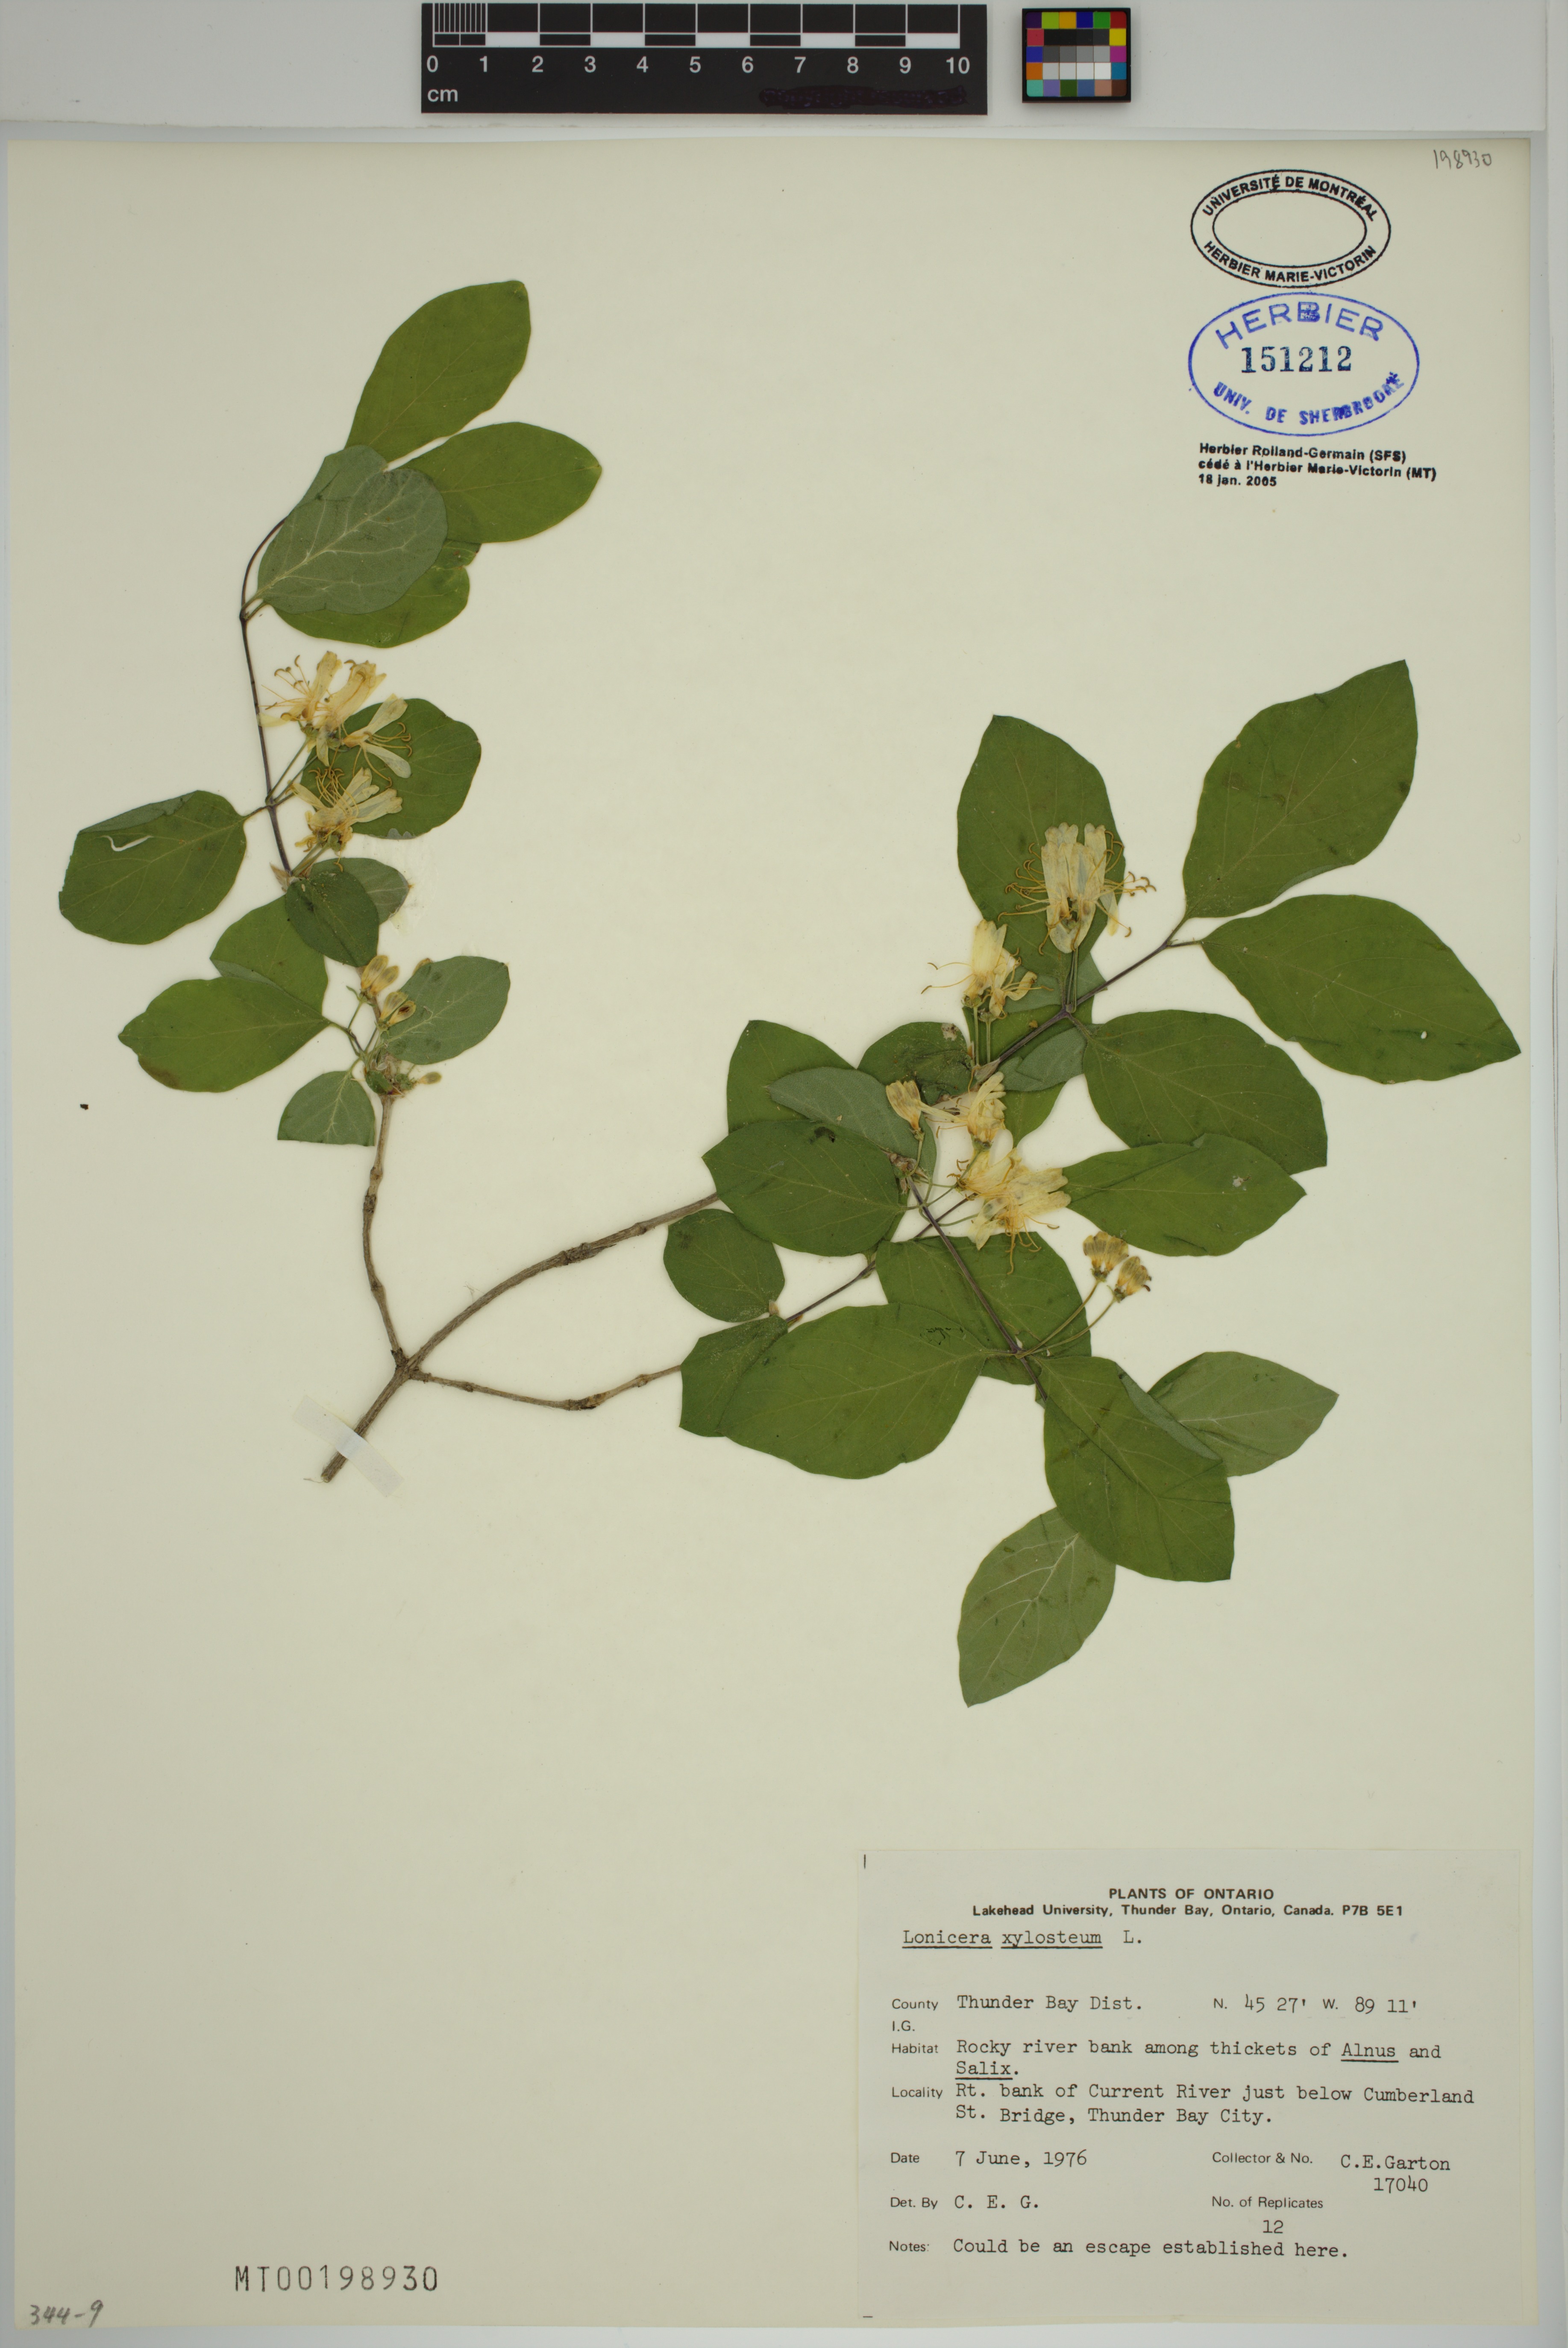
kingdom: Plantae
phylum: Tracheophyta
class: Magnoliopsida
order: Dipsacales
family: Caprifoliaceae
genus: Lonicera
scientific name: Lonicera xylosteum
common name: Fly honeysuckle
